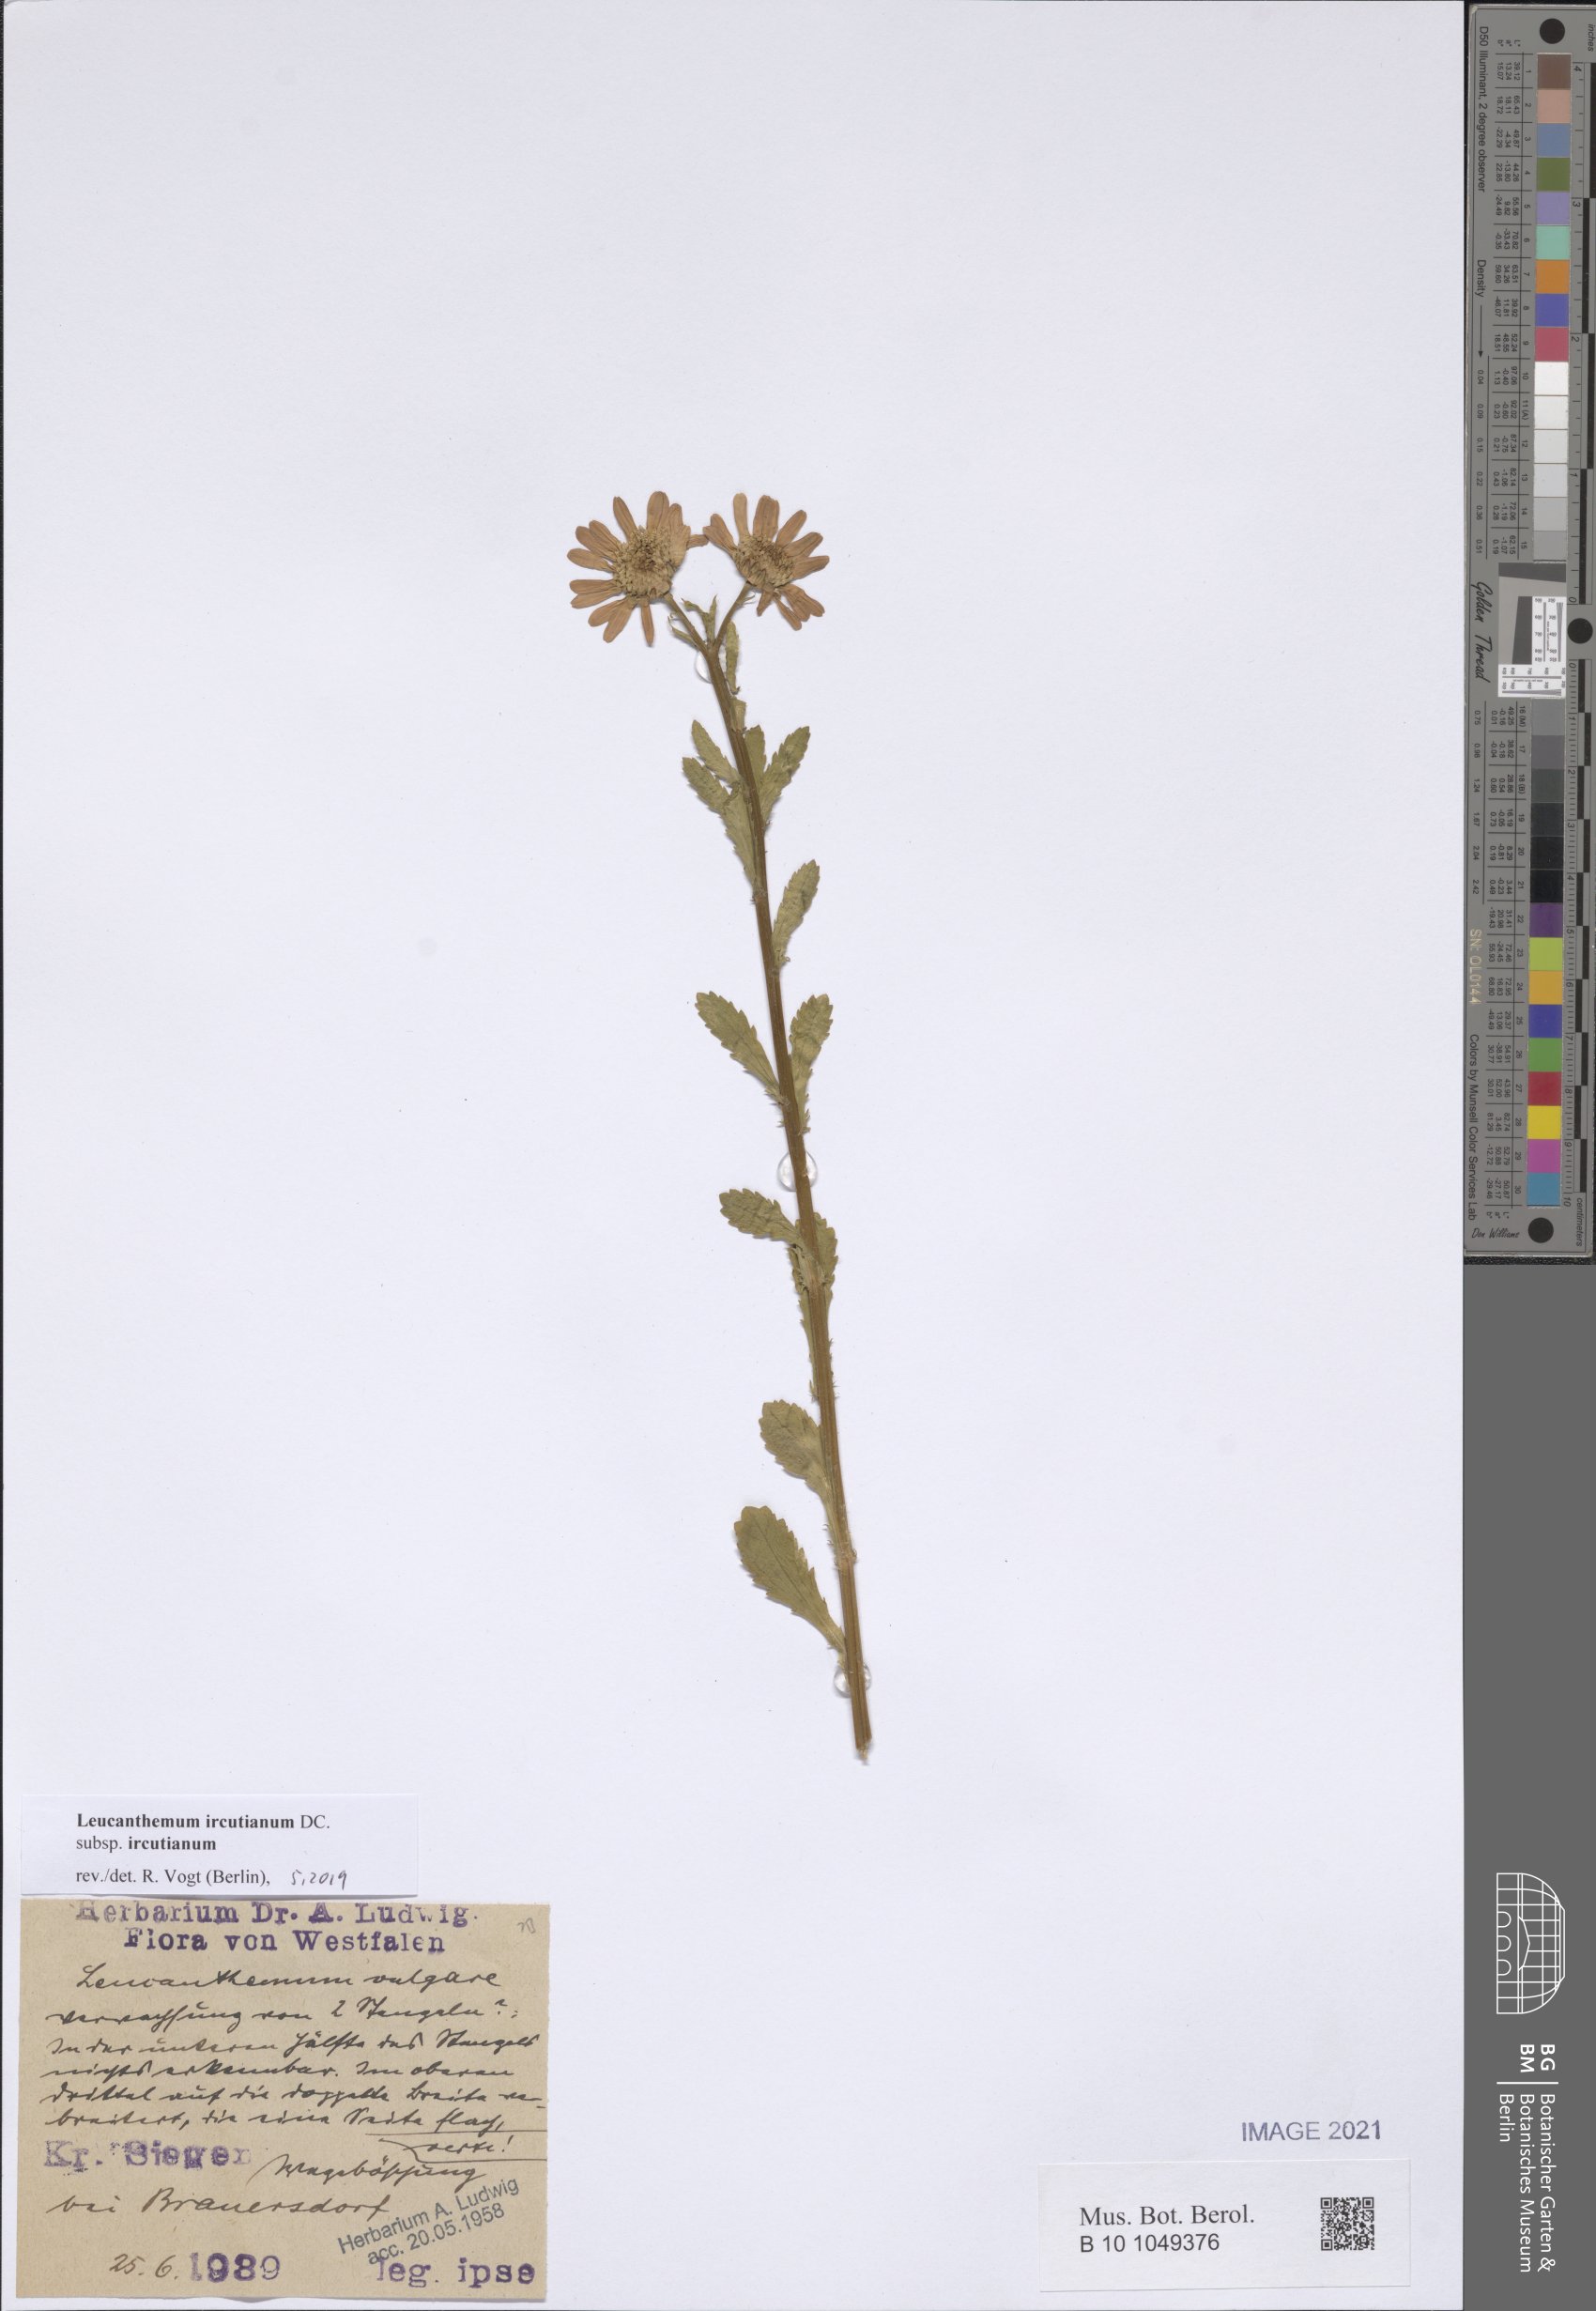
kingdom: Plantae
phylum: Tracheophyta
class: Magnoliopsida
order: Asterales
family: Asteraceae
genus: Leucanthemum
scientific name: Leucanthemum ircutianum
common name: Daisy
